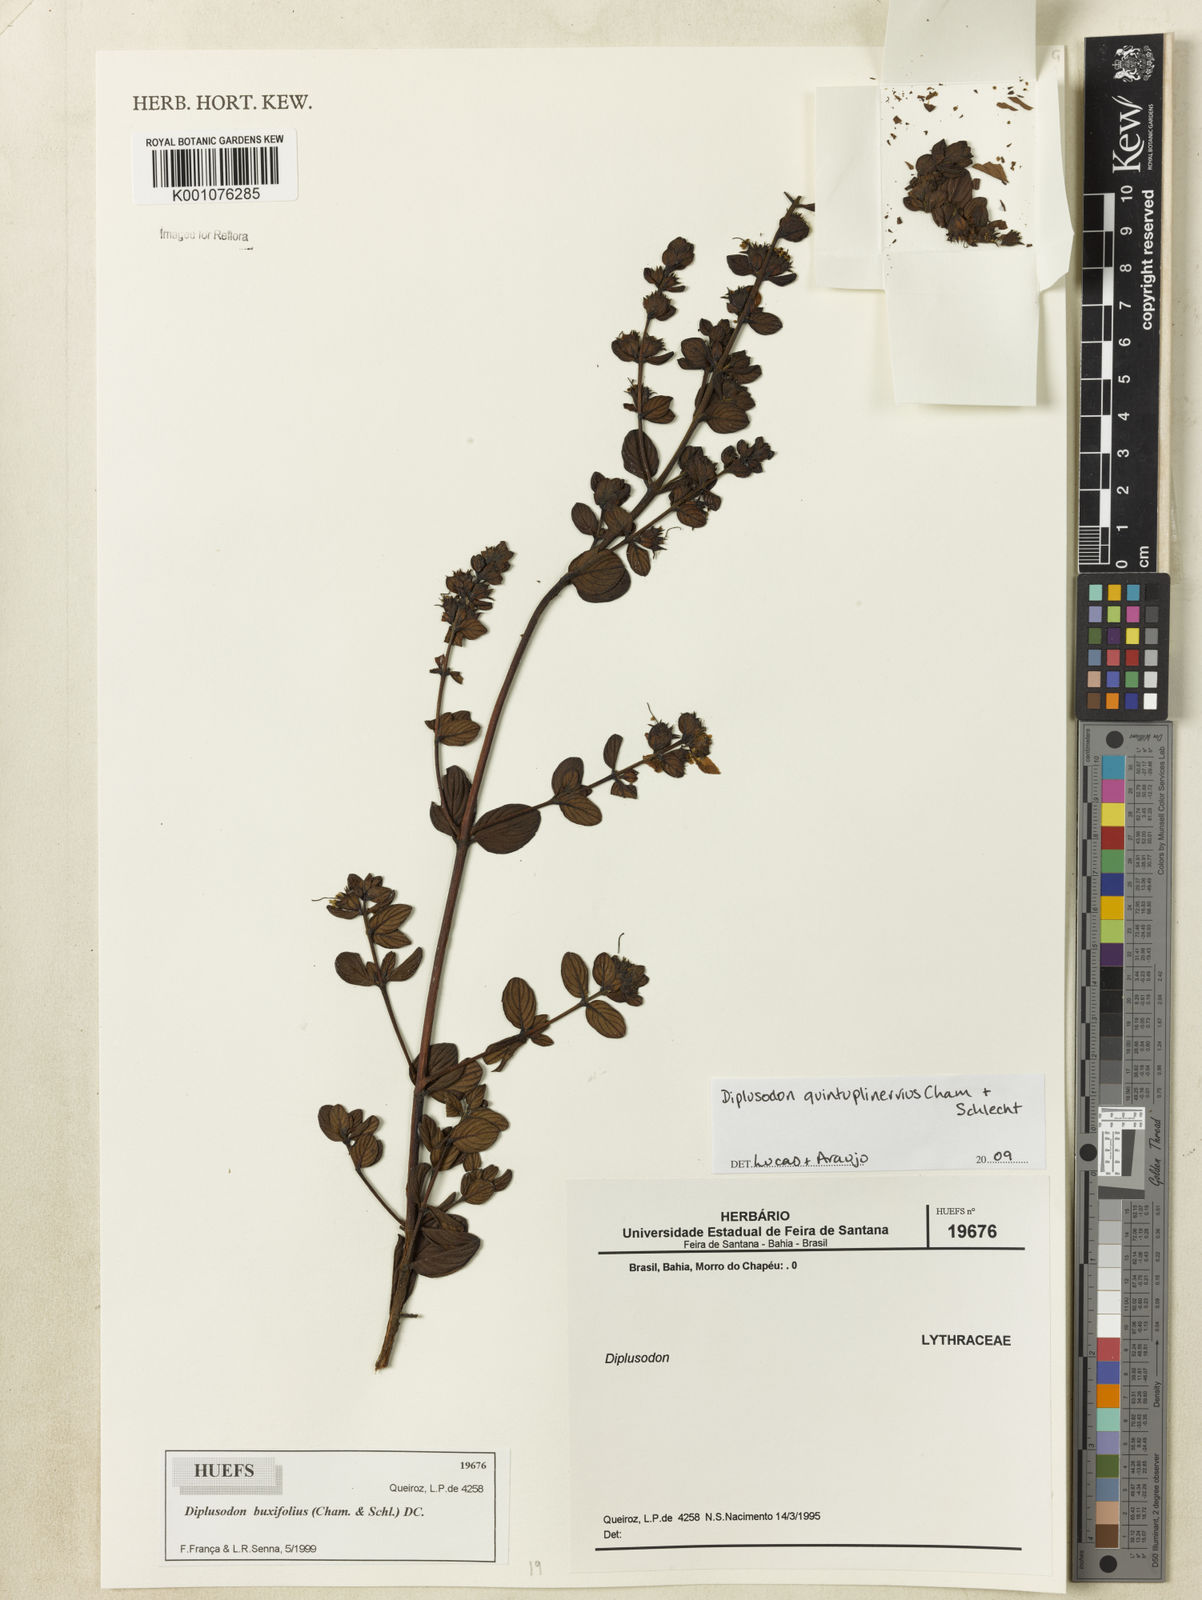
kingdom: Plantae
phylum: Tracheophyta
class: Magnoliopsida
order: Myrtales
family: Lythraceae
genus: Diplusodon
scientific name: Diplusodon quintuplinervius
